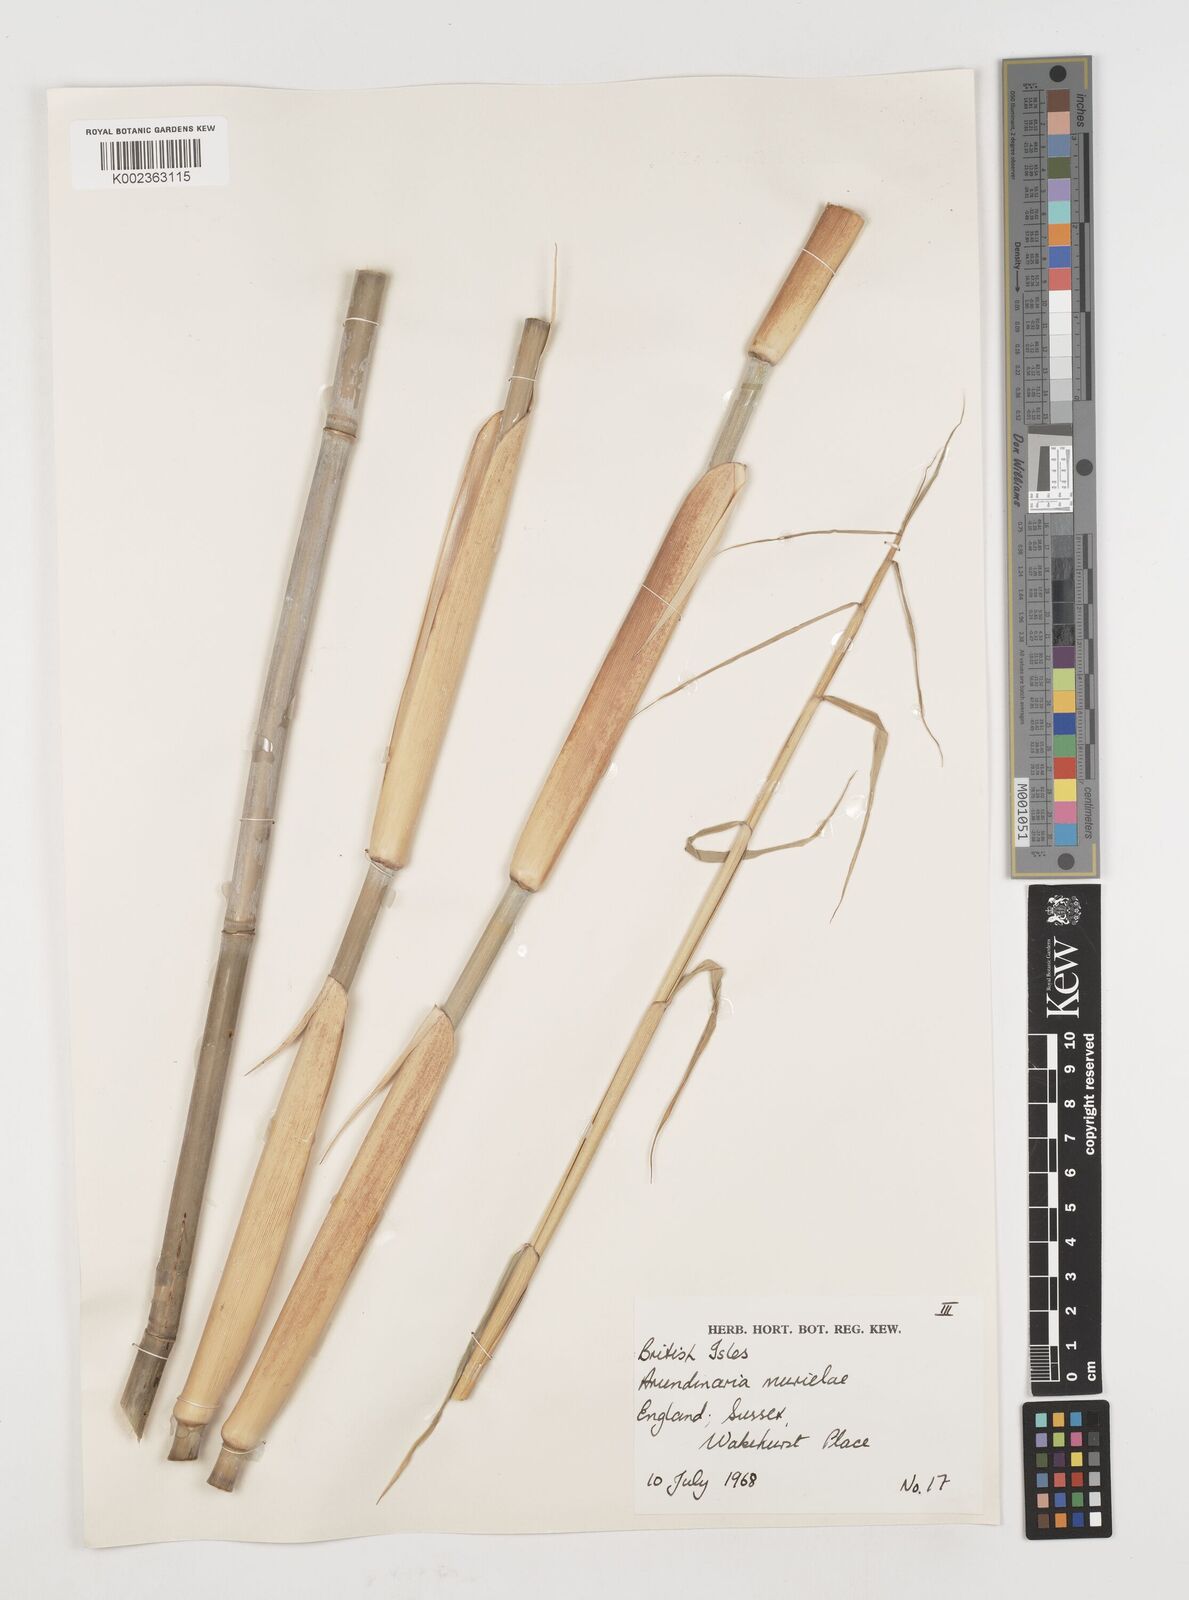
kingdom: Plantae
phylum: Tracheophyta
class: Liliopsida
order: Poales
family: Poaceae
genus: Fargesia
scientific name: Fargesia murielae
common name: Umbrella bamboo
